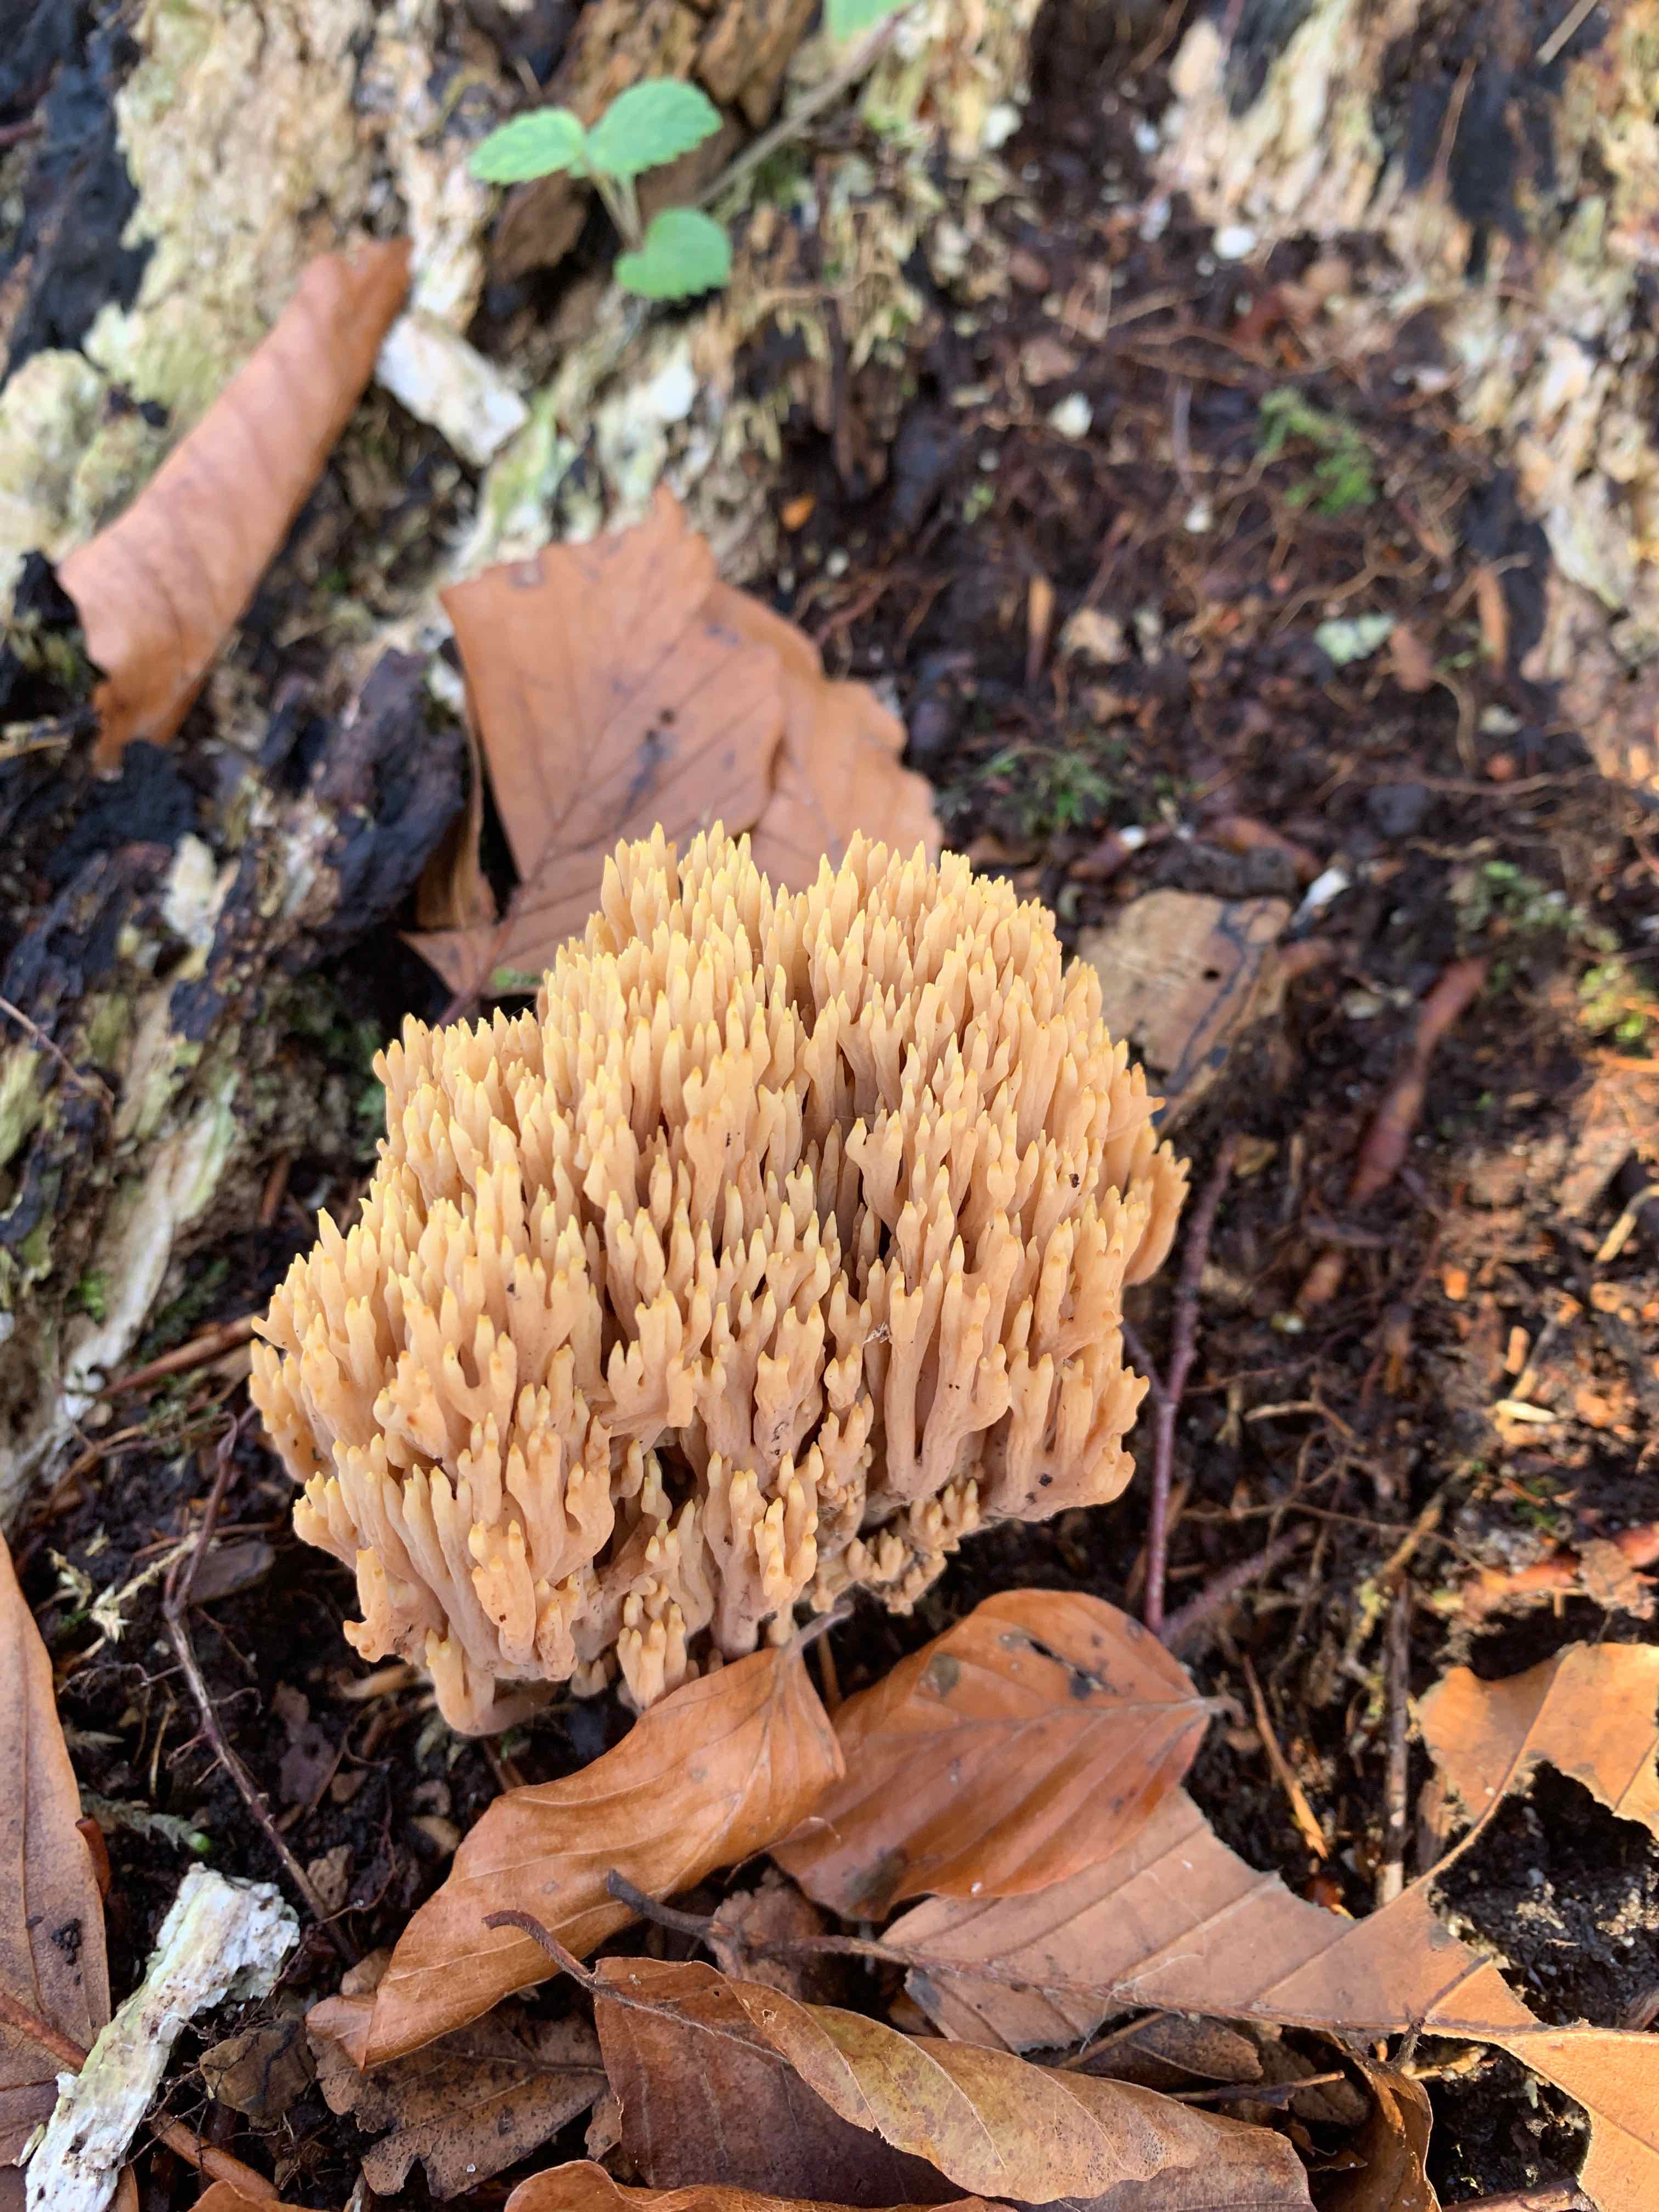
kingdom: Fungi
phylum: Basidiomycota
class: Agaricomycetes
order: Gomphales
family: Gomphaceae
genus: Ramaria
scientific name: Ramaria stricta
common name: rank koralsvamp
